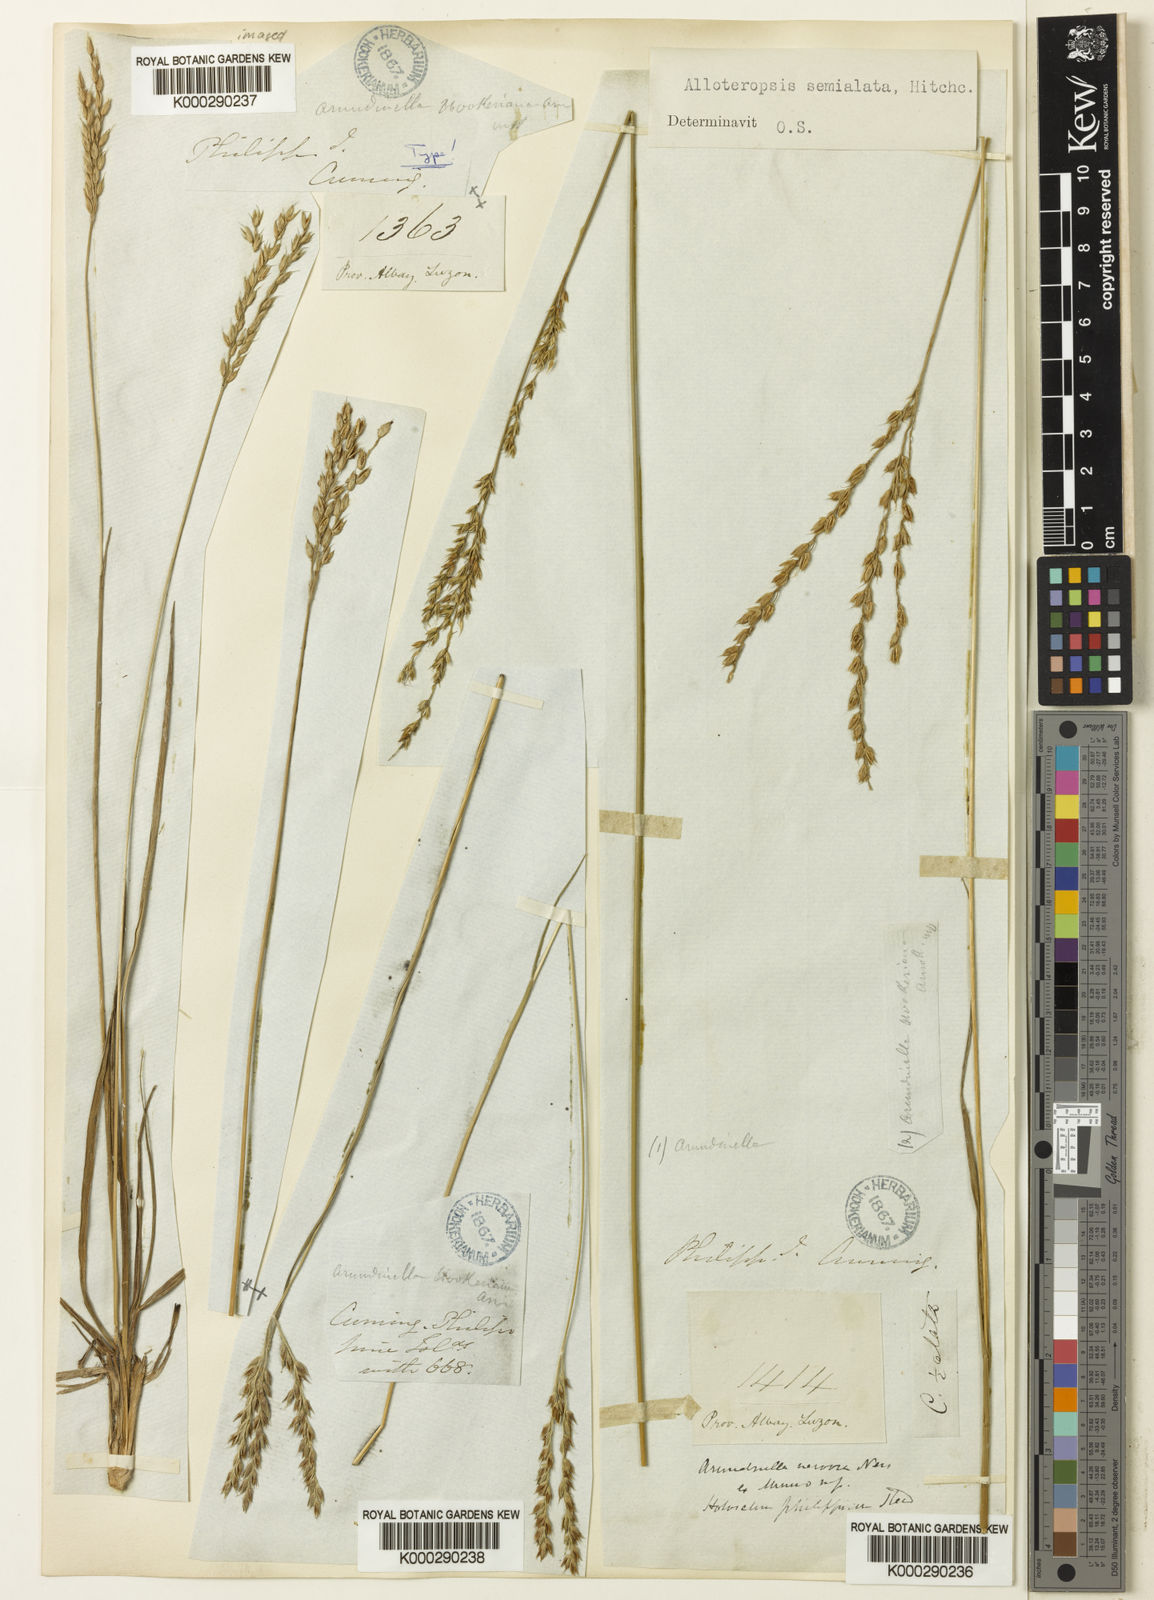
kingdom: Plantae
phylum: Tracheophyta
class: Liliopsida
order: Poales
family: Poaceae
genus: Alloteropsis
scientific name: Alloteropsis semialata
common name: Cockatoo grass
